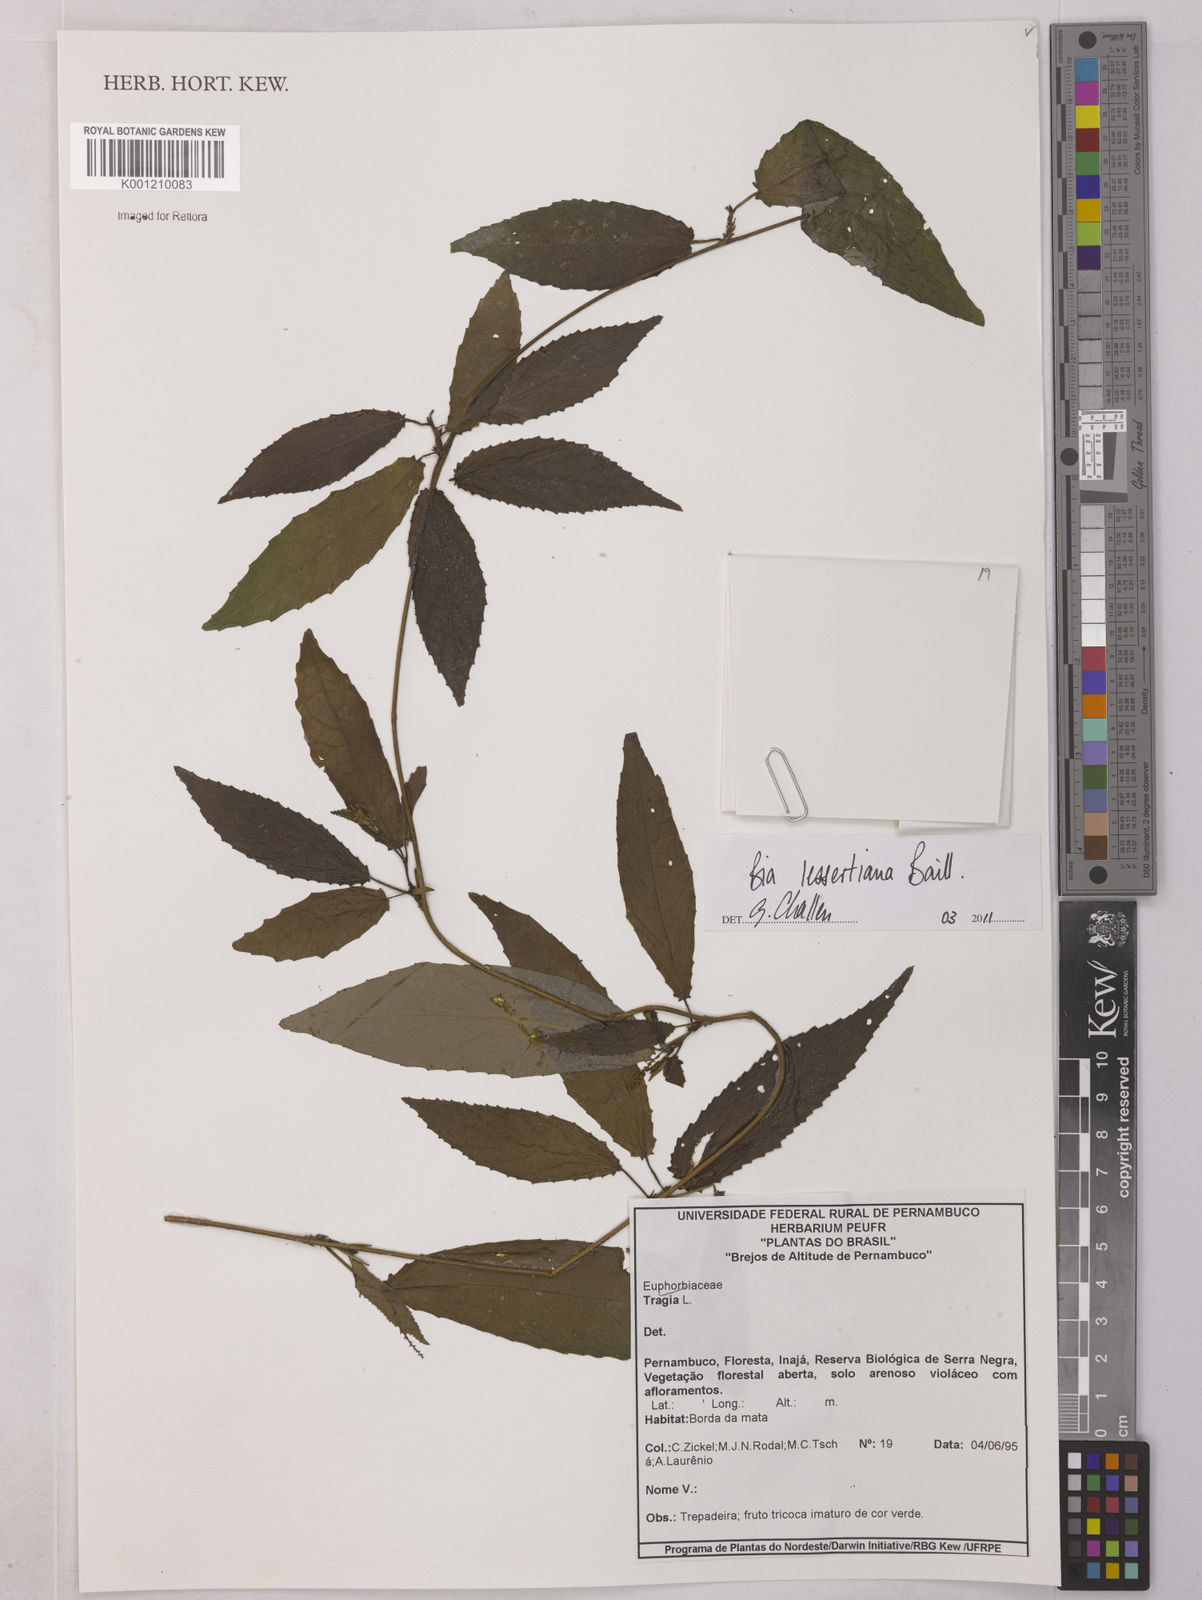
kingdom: Plantae
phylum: Tracheophyta
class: Magnoliopsida
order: Malpighiales
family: Euphorbiaceae
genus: Bia
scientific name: Bia lessertiana
